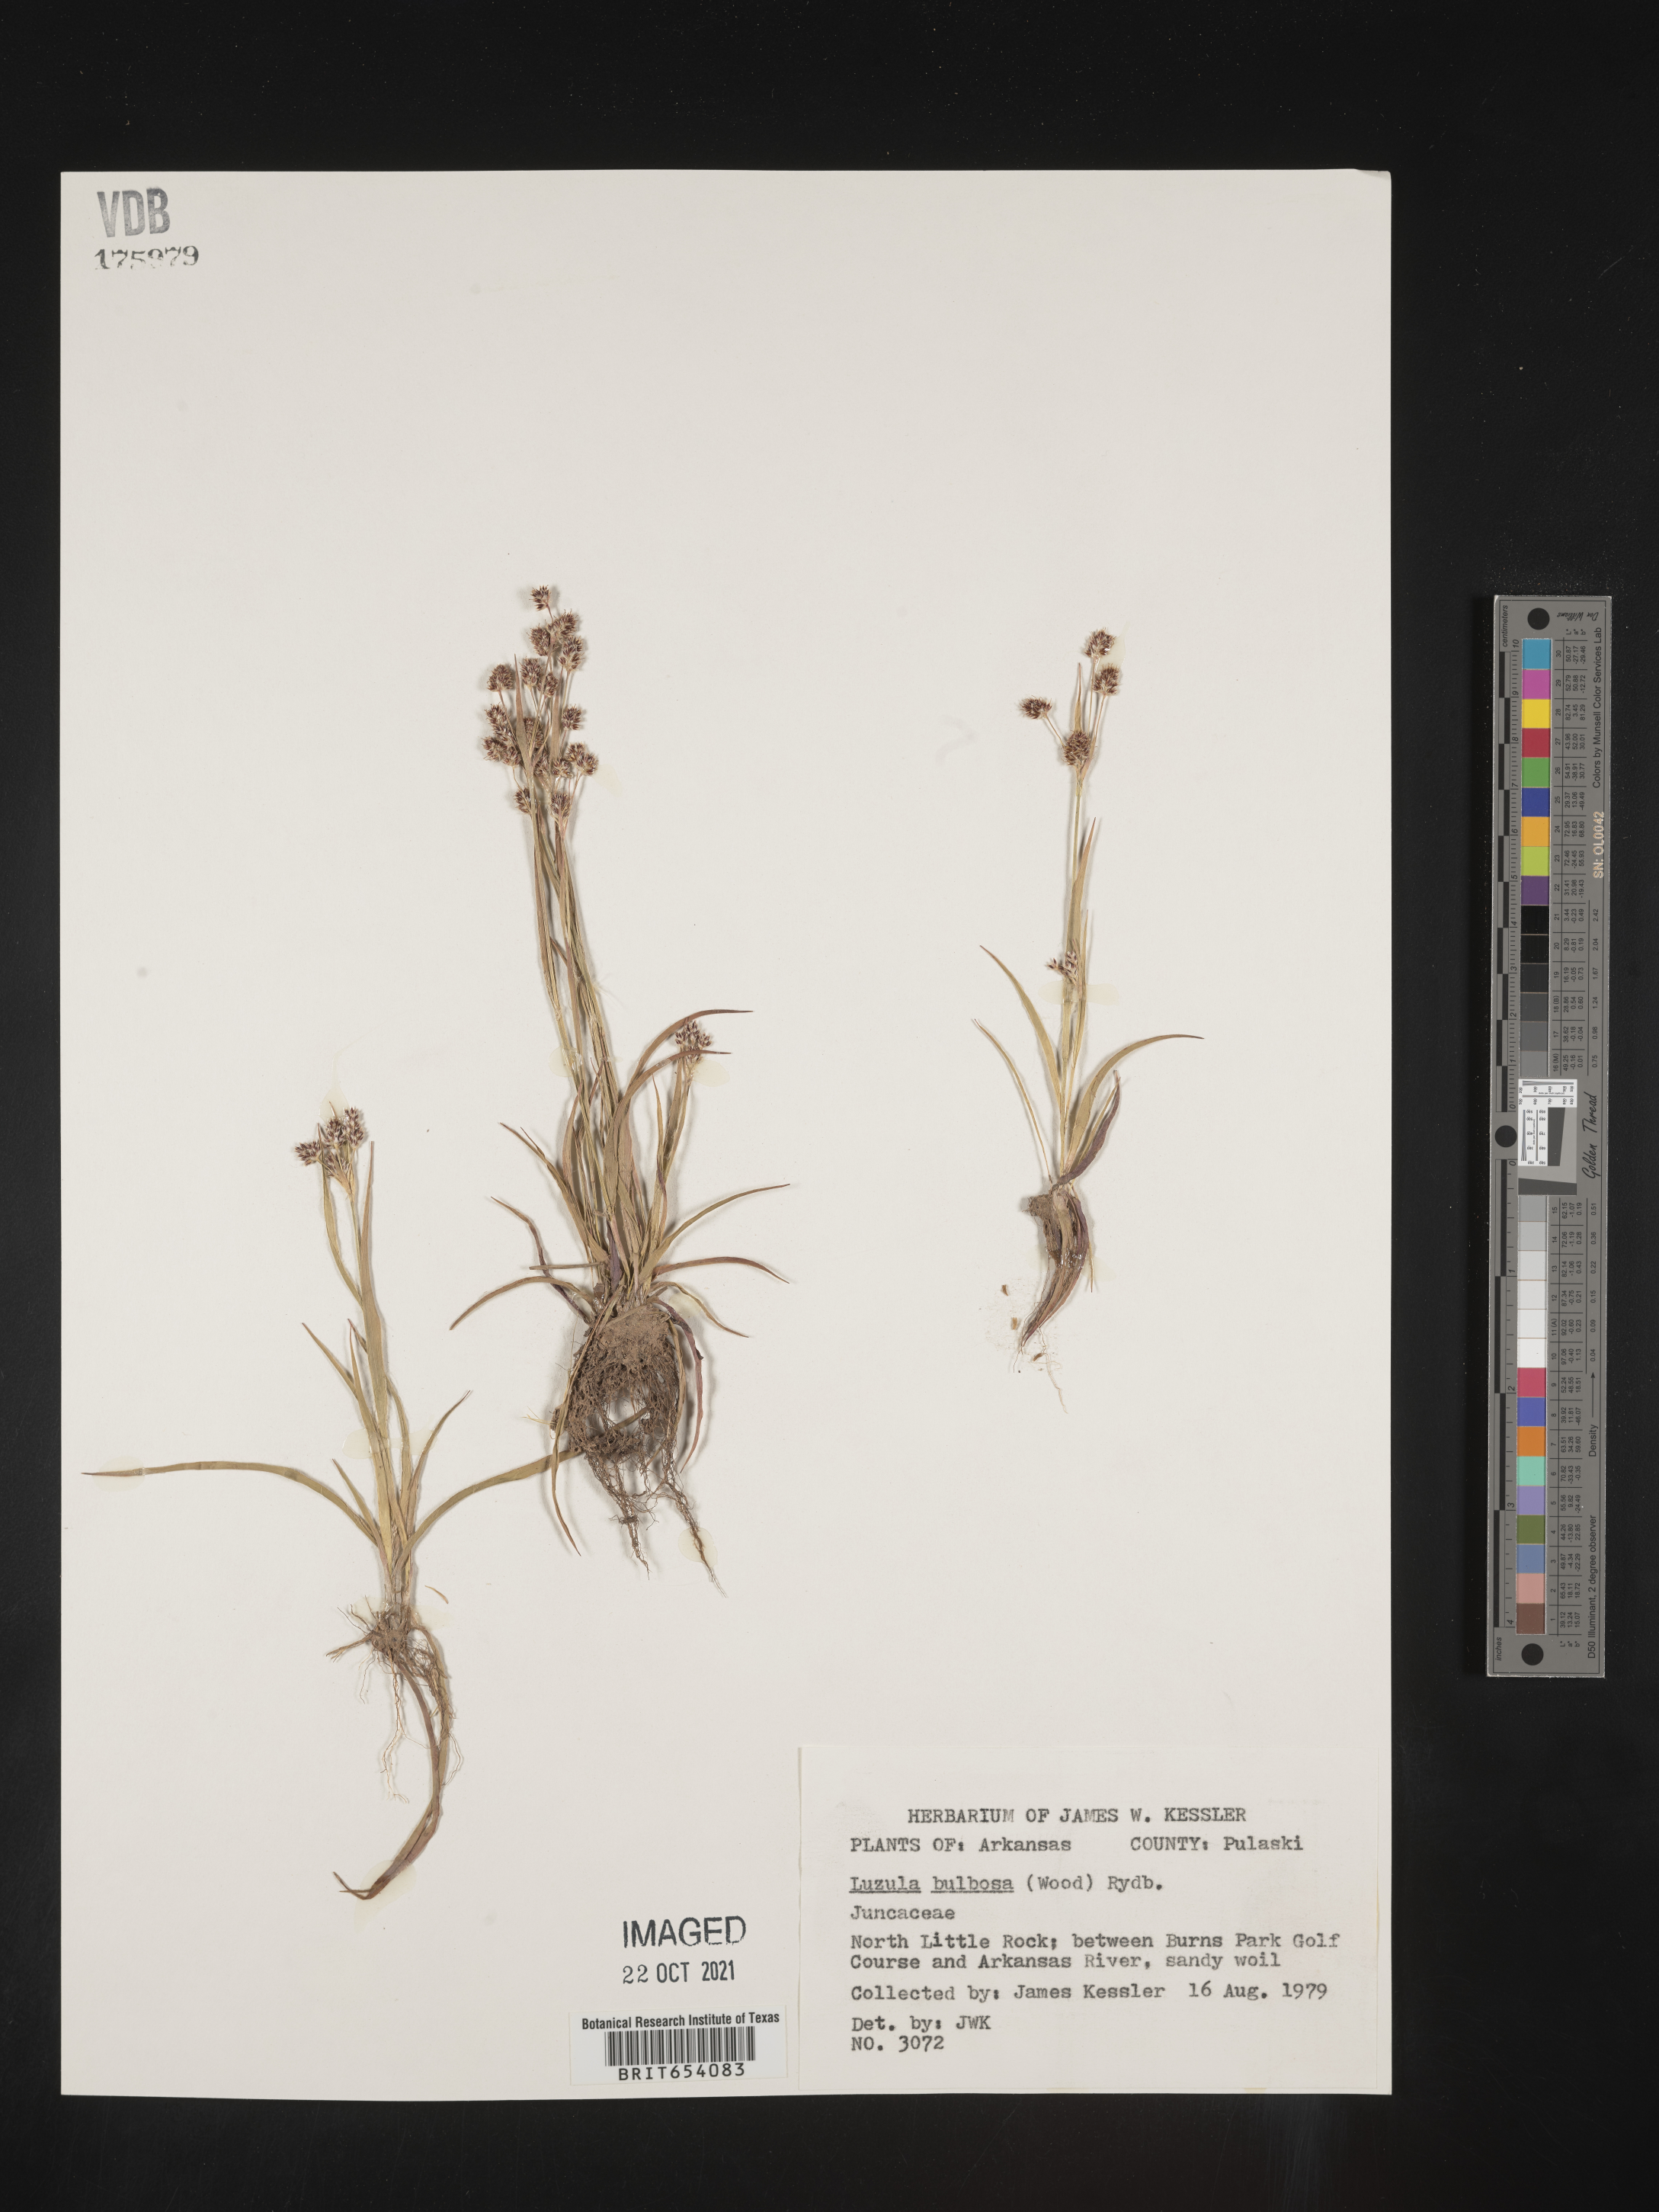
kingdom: Plantae
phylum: Tracheophyta
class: Liliopsida
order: Poales
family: Juncaceae
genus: Luzula
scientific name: Luzula bulbosa
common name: Bulbous woodrush
